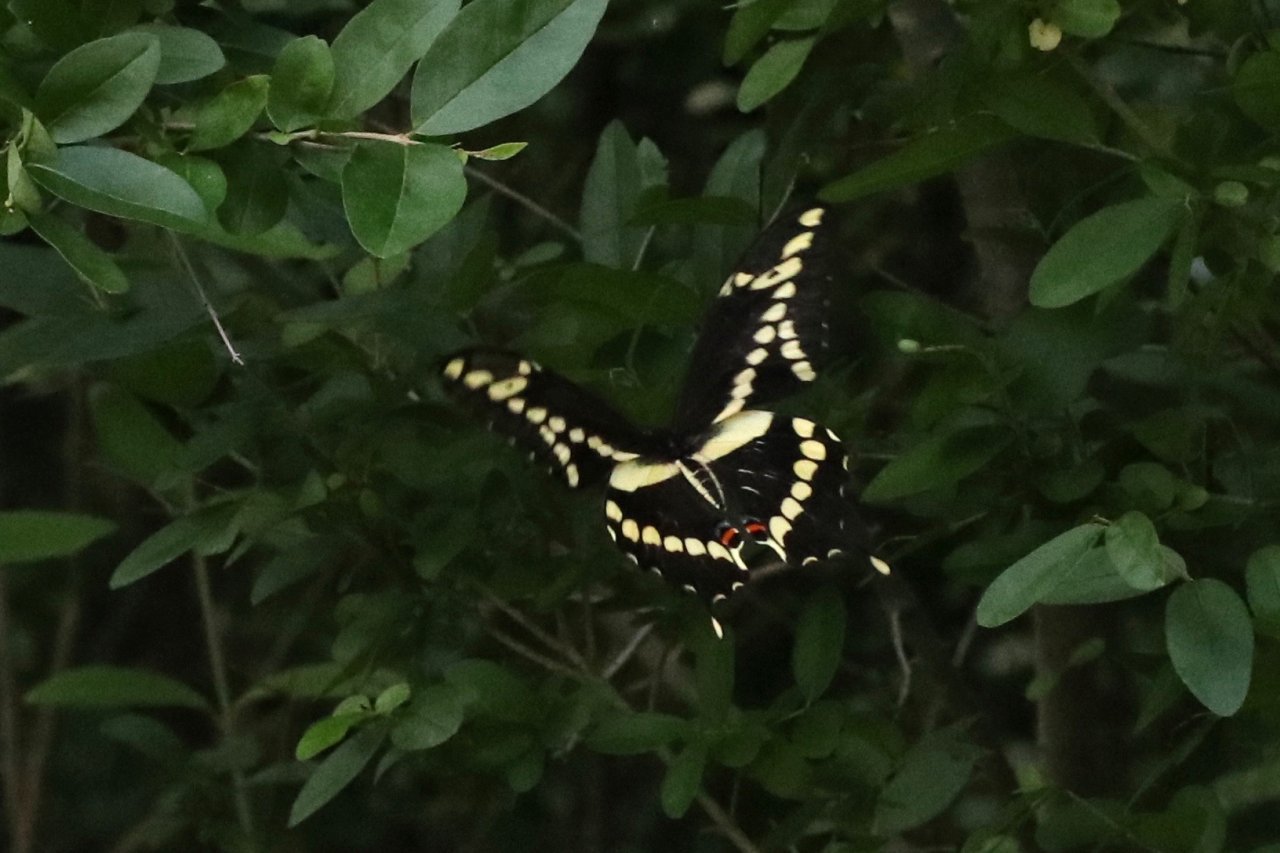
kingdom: Animalia
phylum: Arthropoda
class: Insecta
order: Lepidoptera
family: Papilionidae
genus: Papilio
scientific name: Papilio cresphontes
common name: Eastern Giant Swallowtail
